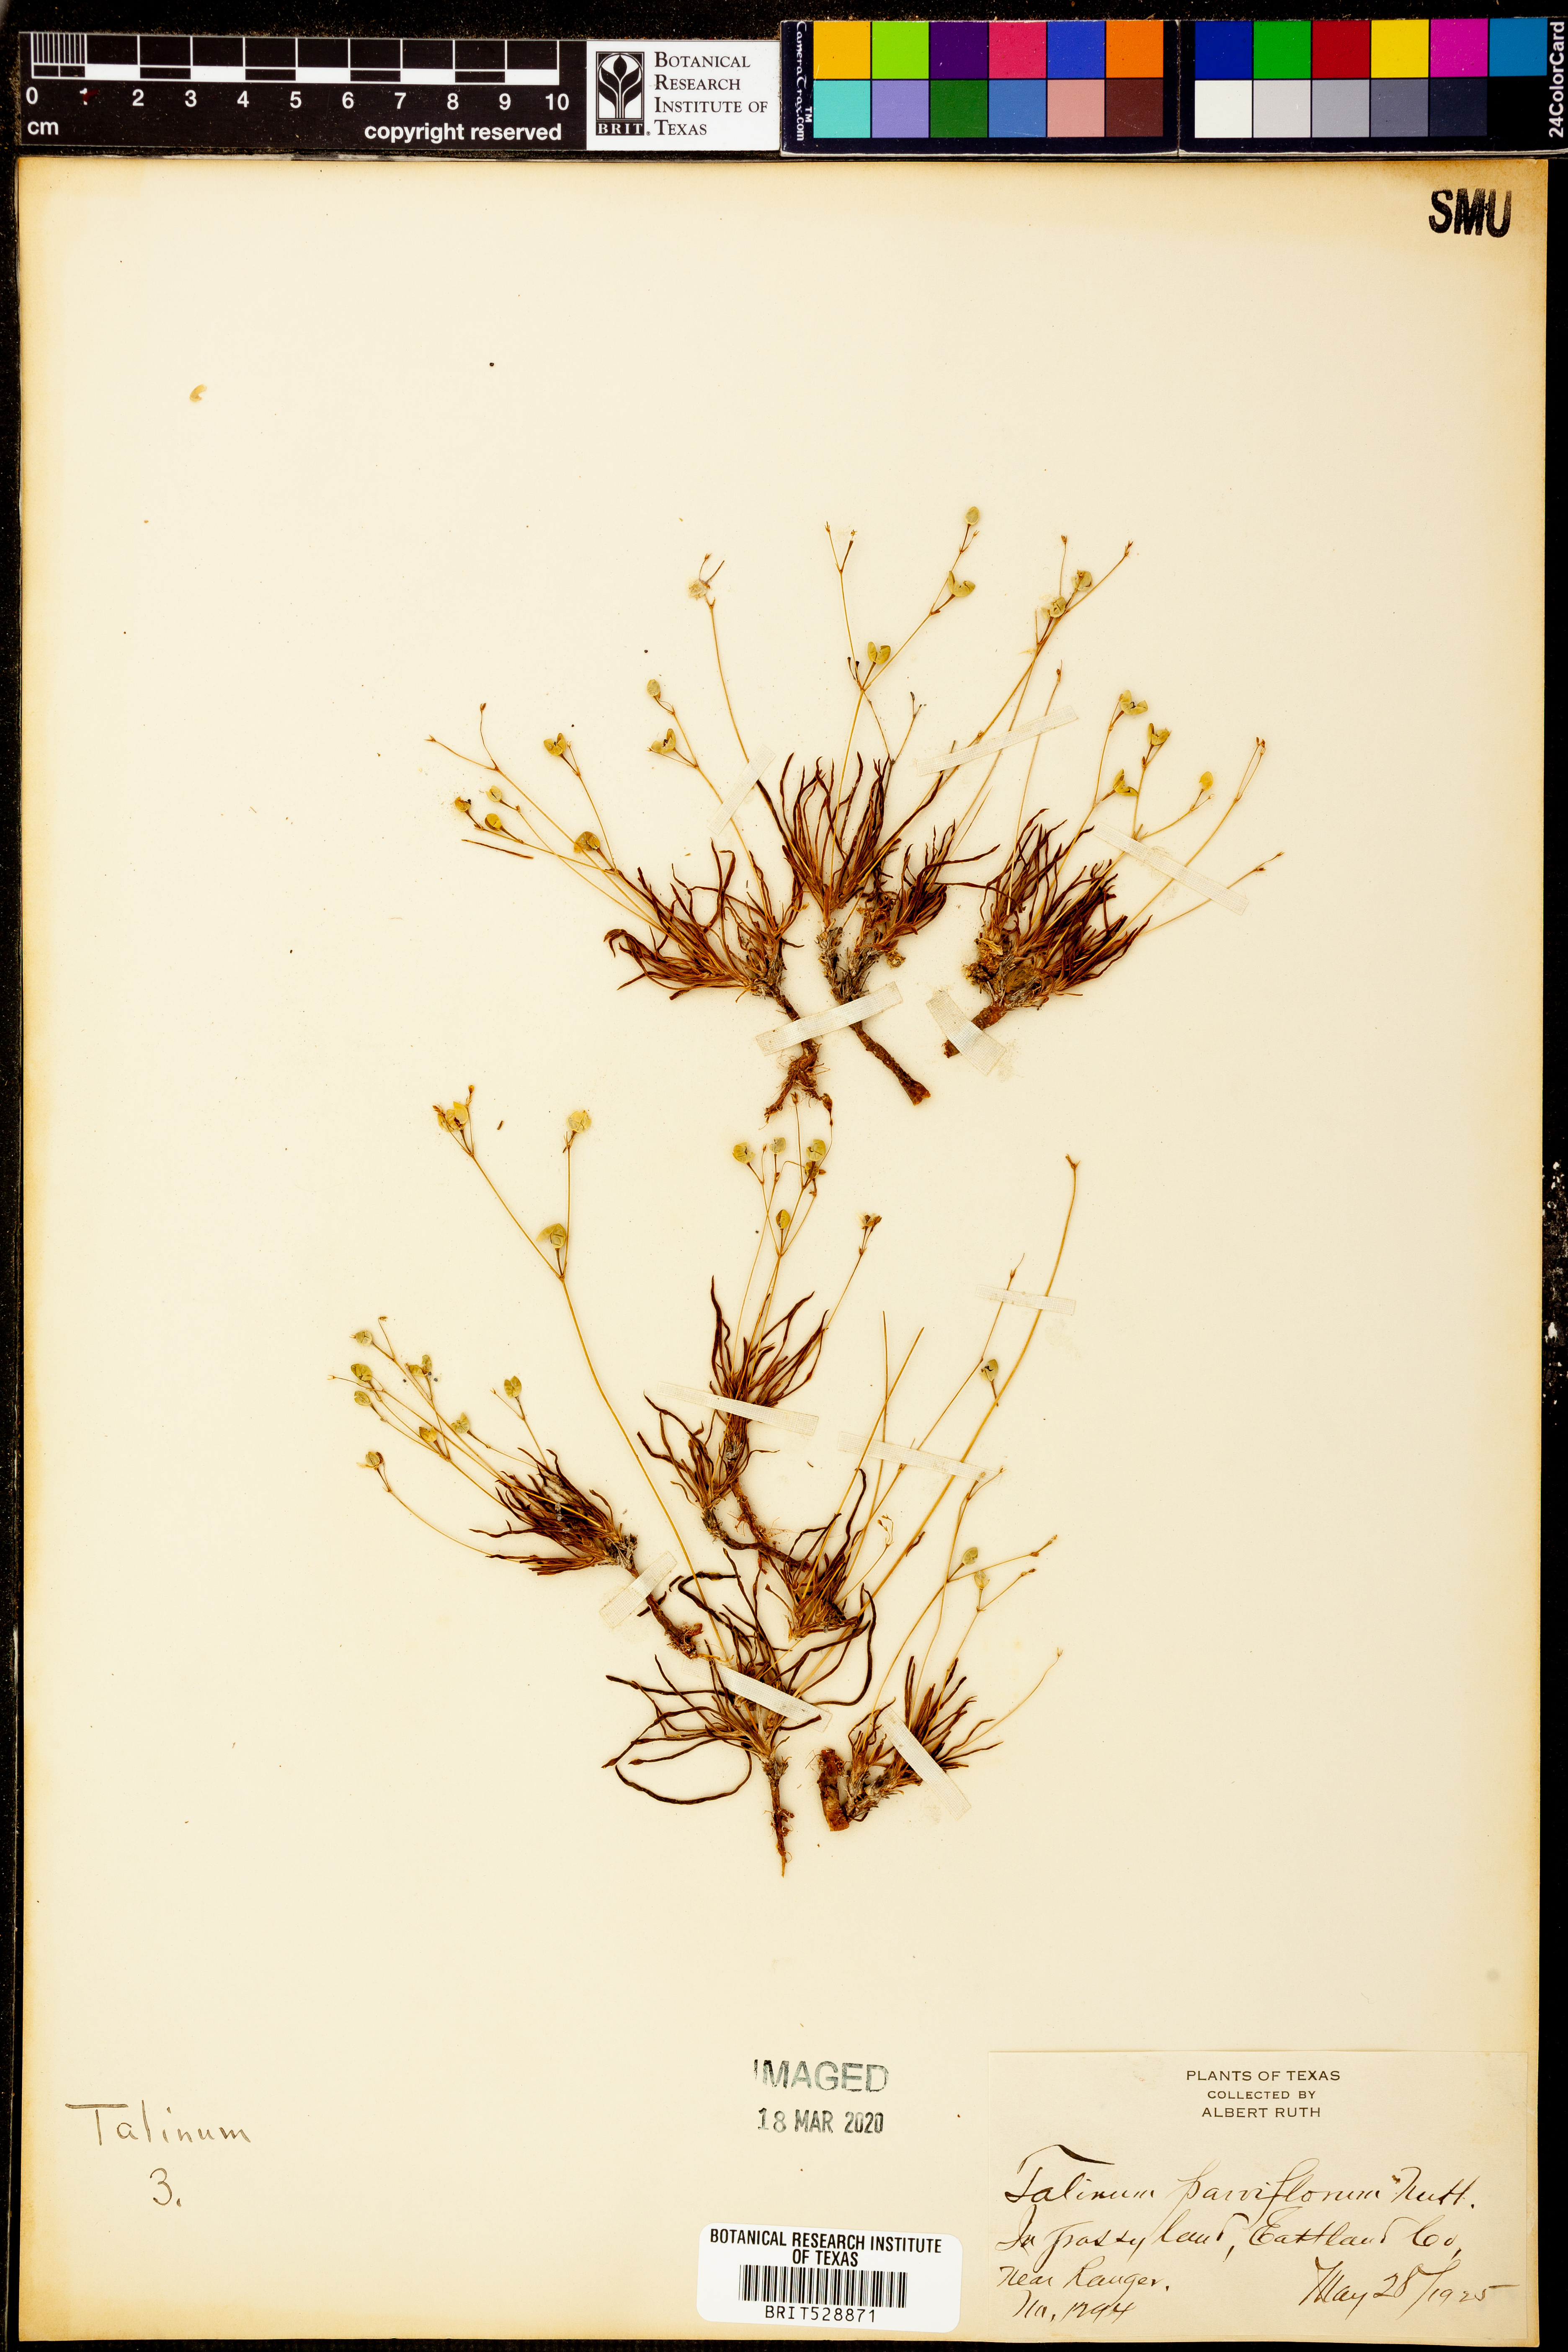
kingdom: Plantae
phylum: Tracheophyta
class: Magnoliopsida
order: Caryophyllales
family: Montiaceae
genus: Phemeranthus
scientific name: Phemeranthus parviflorus
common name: Sunbright
